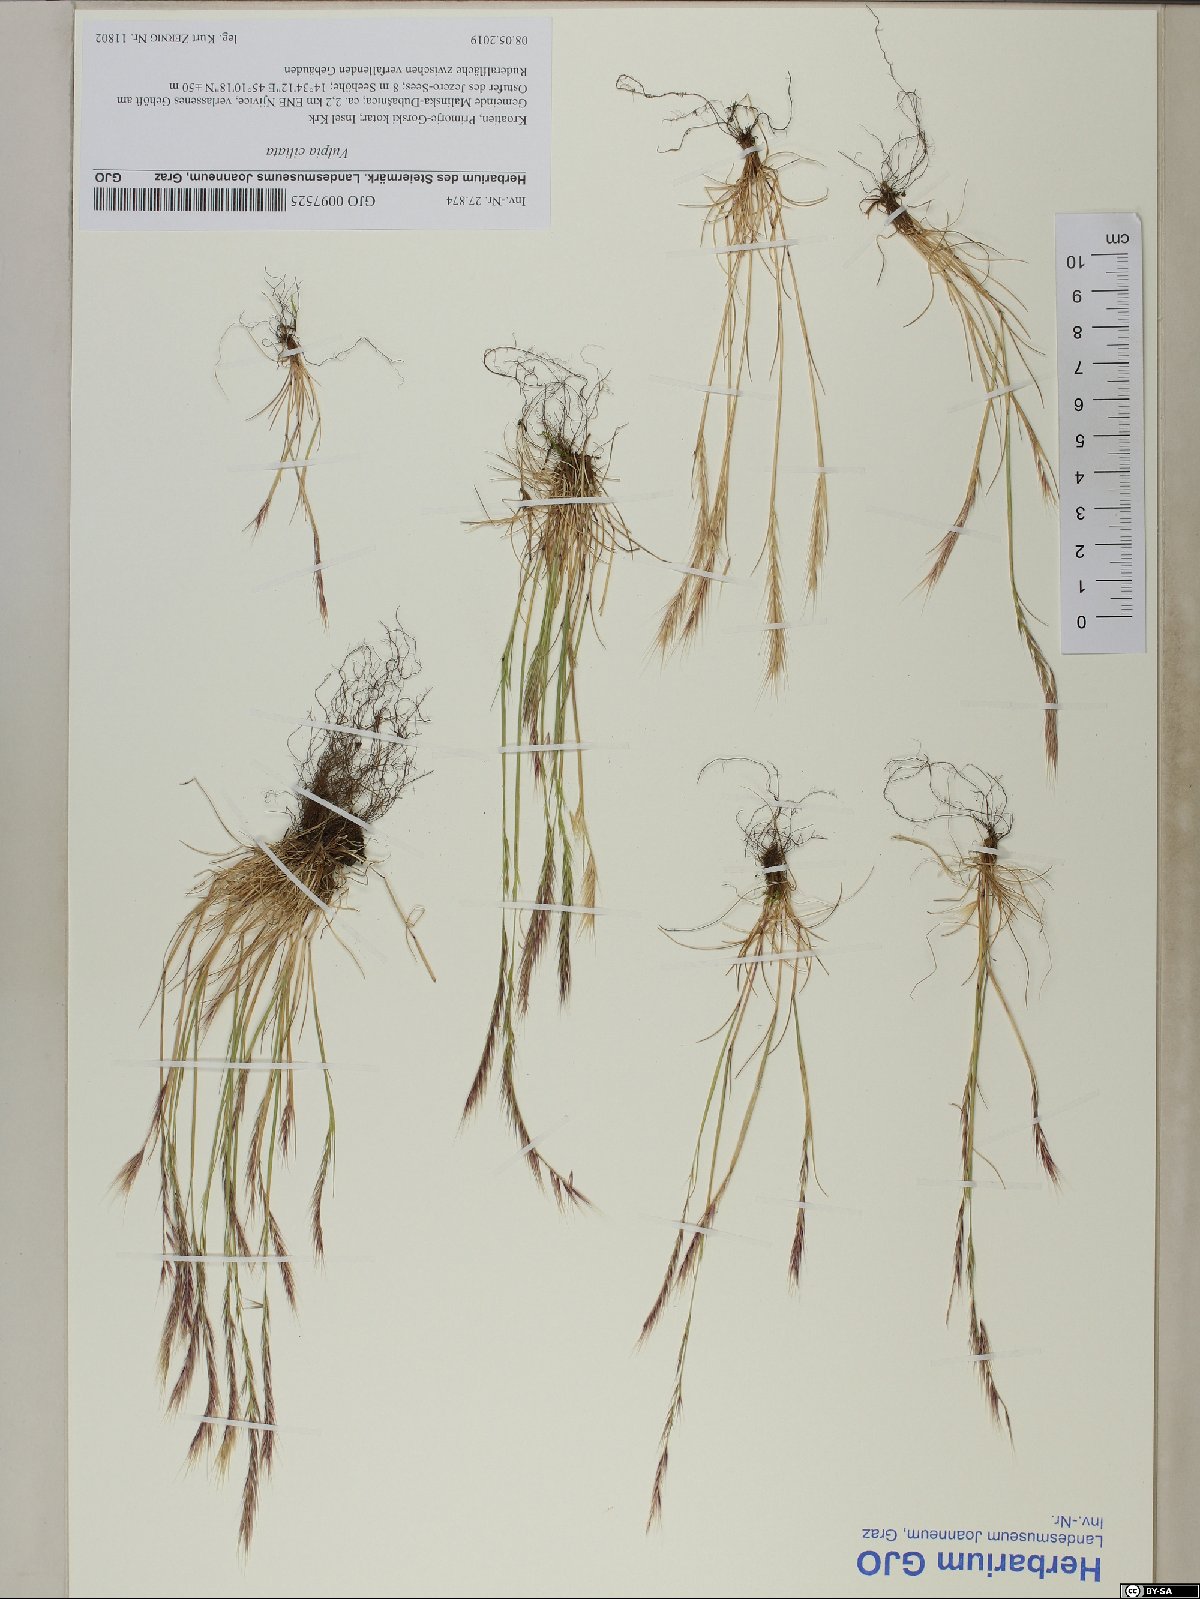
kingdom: Plantae
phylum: Tracheophyta
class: Liliopsida
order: Poales
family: Poaceae
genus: Festuca
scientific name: Festuca ambigua
